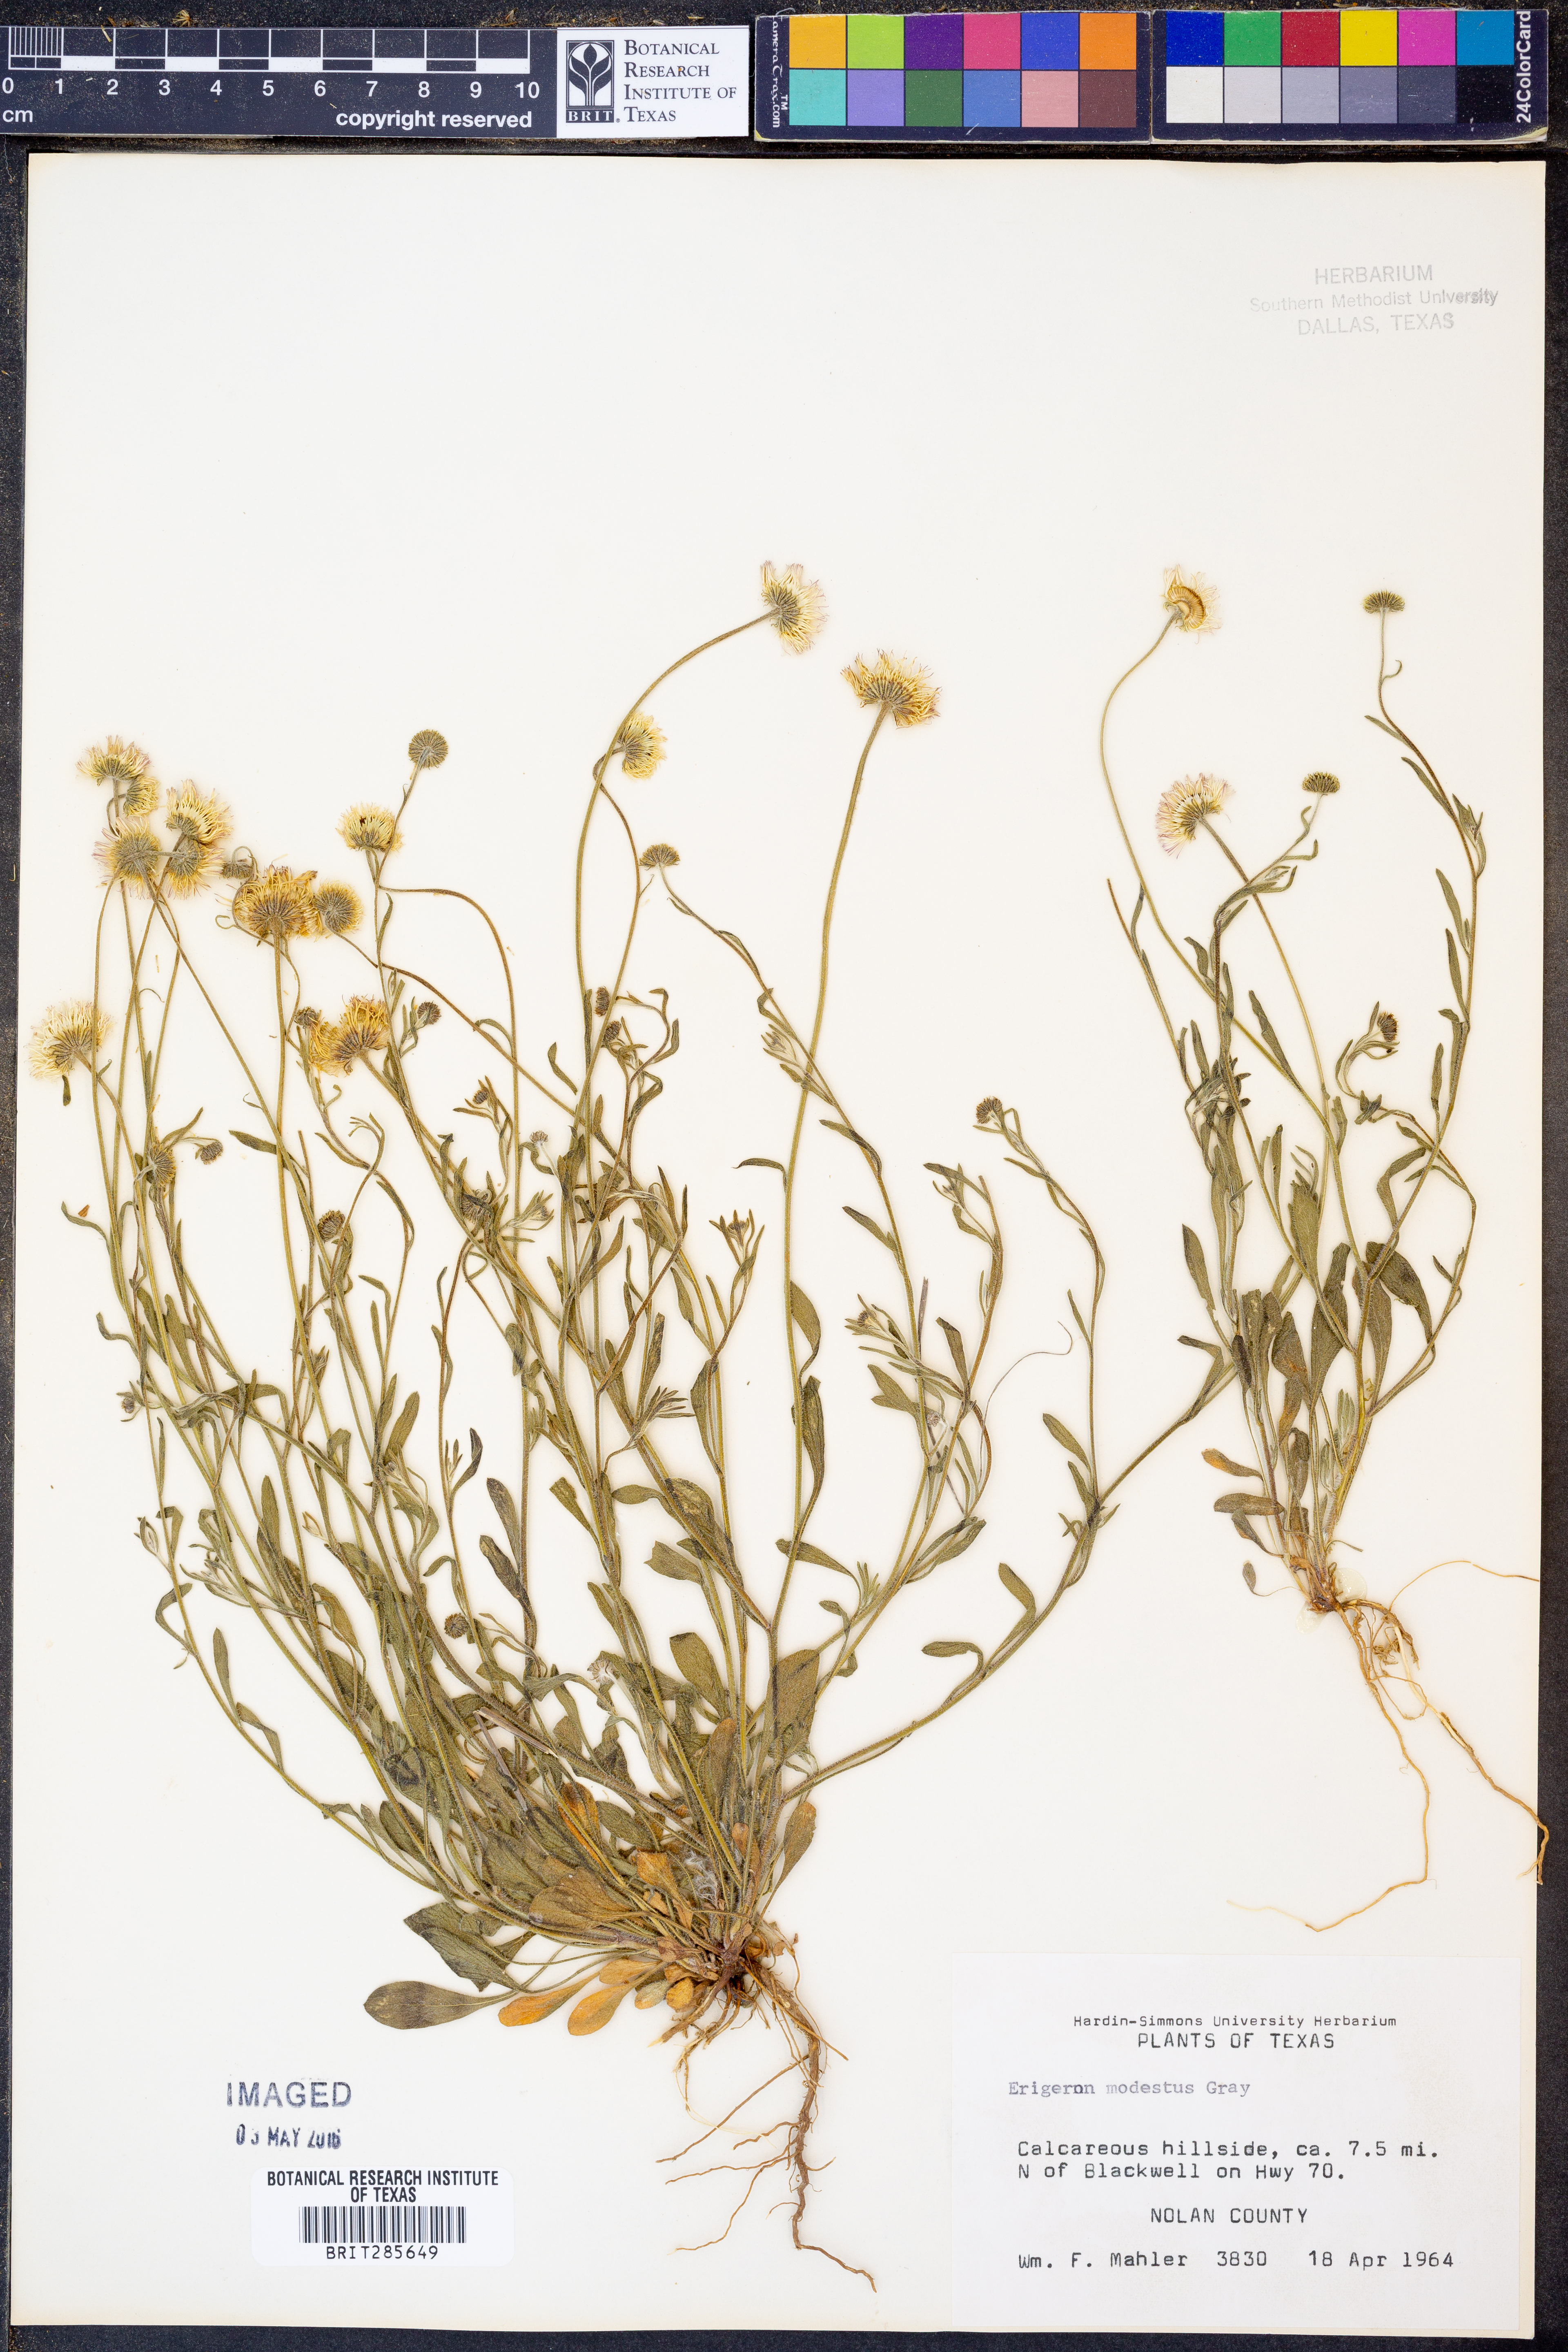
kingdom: Plantae
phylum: Tracheophyta
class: Magnoliopsida
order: Asterales
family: Asteraceae
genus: Erigeron
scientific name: Erigeron modestus
